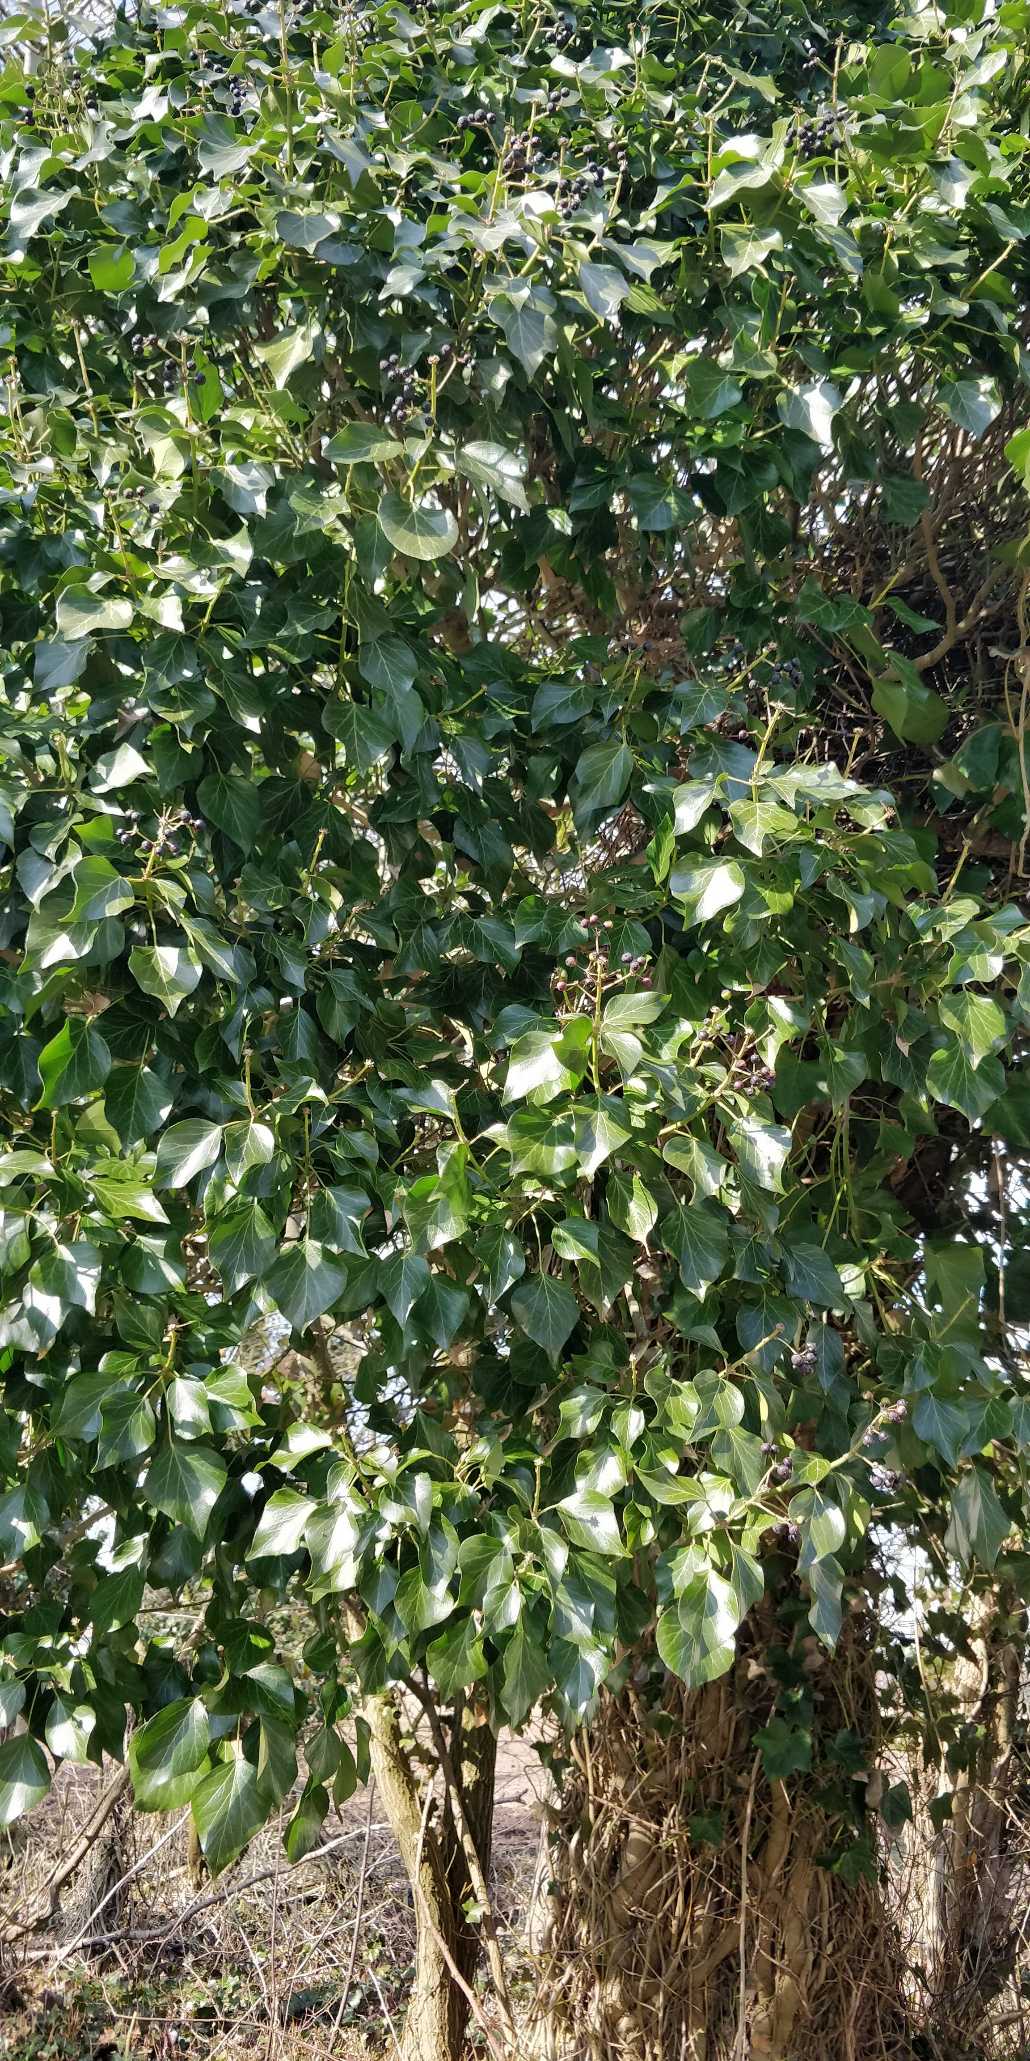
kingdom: Plantae
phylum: Tracheophyta
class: Magnoliopsida
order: Apiales
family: Araliaceae
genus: Hedera
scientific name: Hedera helix
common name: Vedbend
